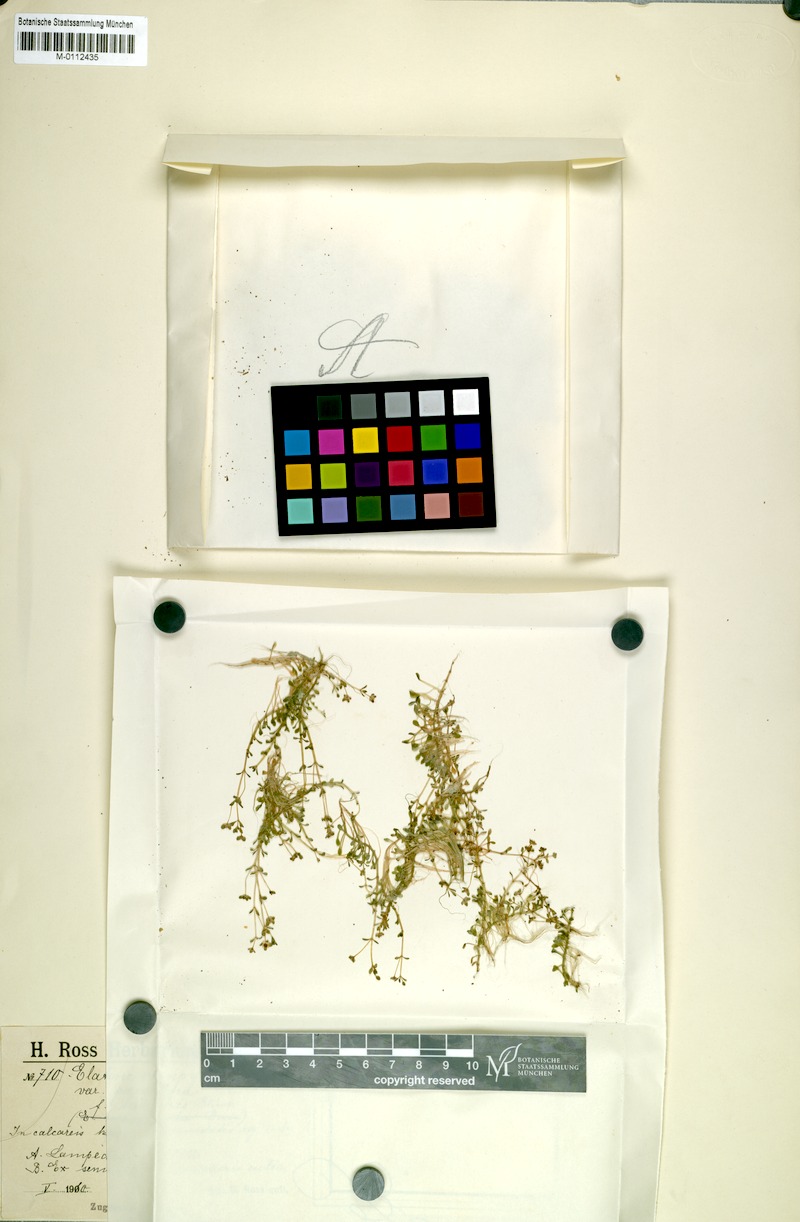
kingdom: Plantae
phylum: Tracheophyta
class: Magnoliopsida
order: Malpighiales
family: Elatinaceae
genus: Elatine
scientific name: Elatine macropoda
